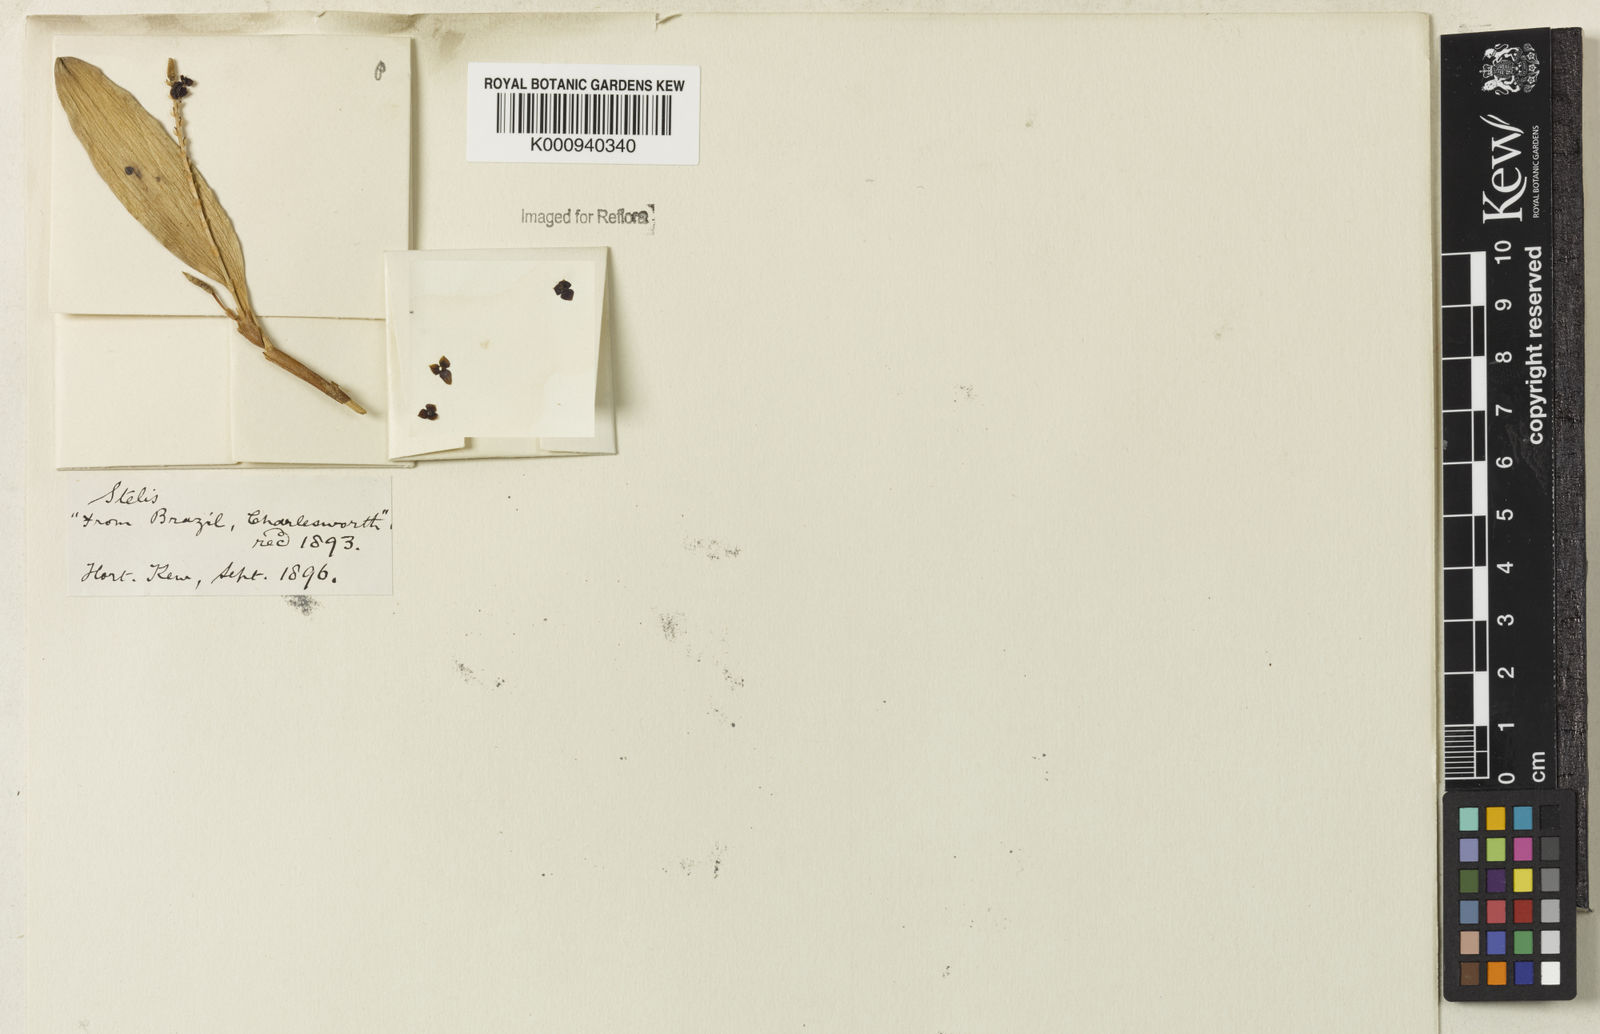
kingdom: Plantae
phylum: Tracheophyta
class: Liliopsida
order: Asparagales
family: Orchidaceae
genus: Stelis
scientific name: Stelis
